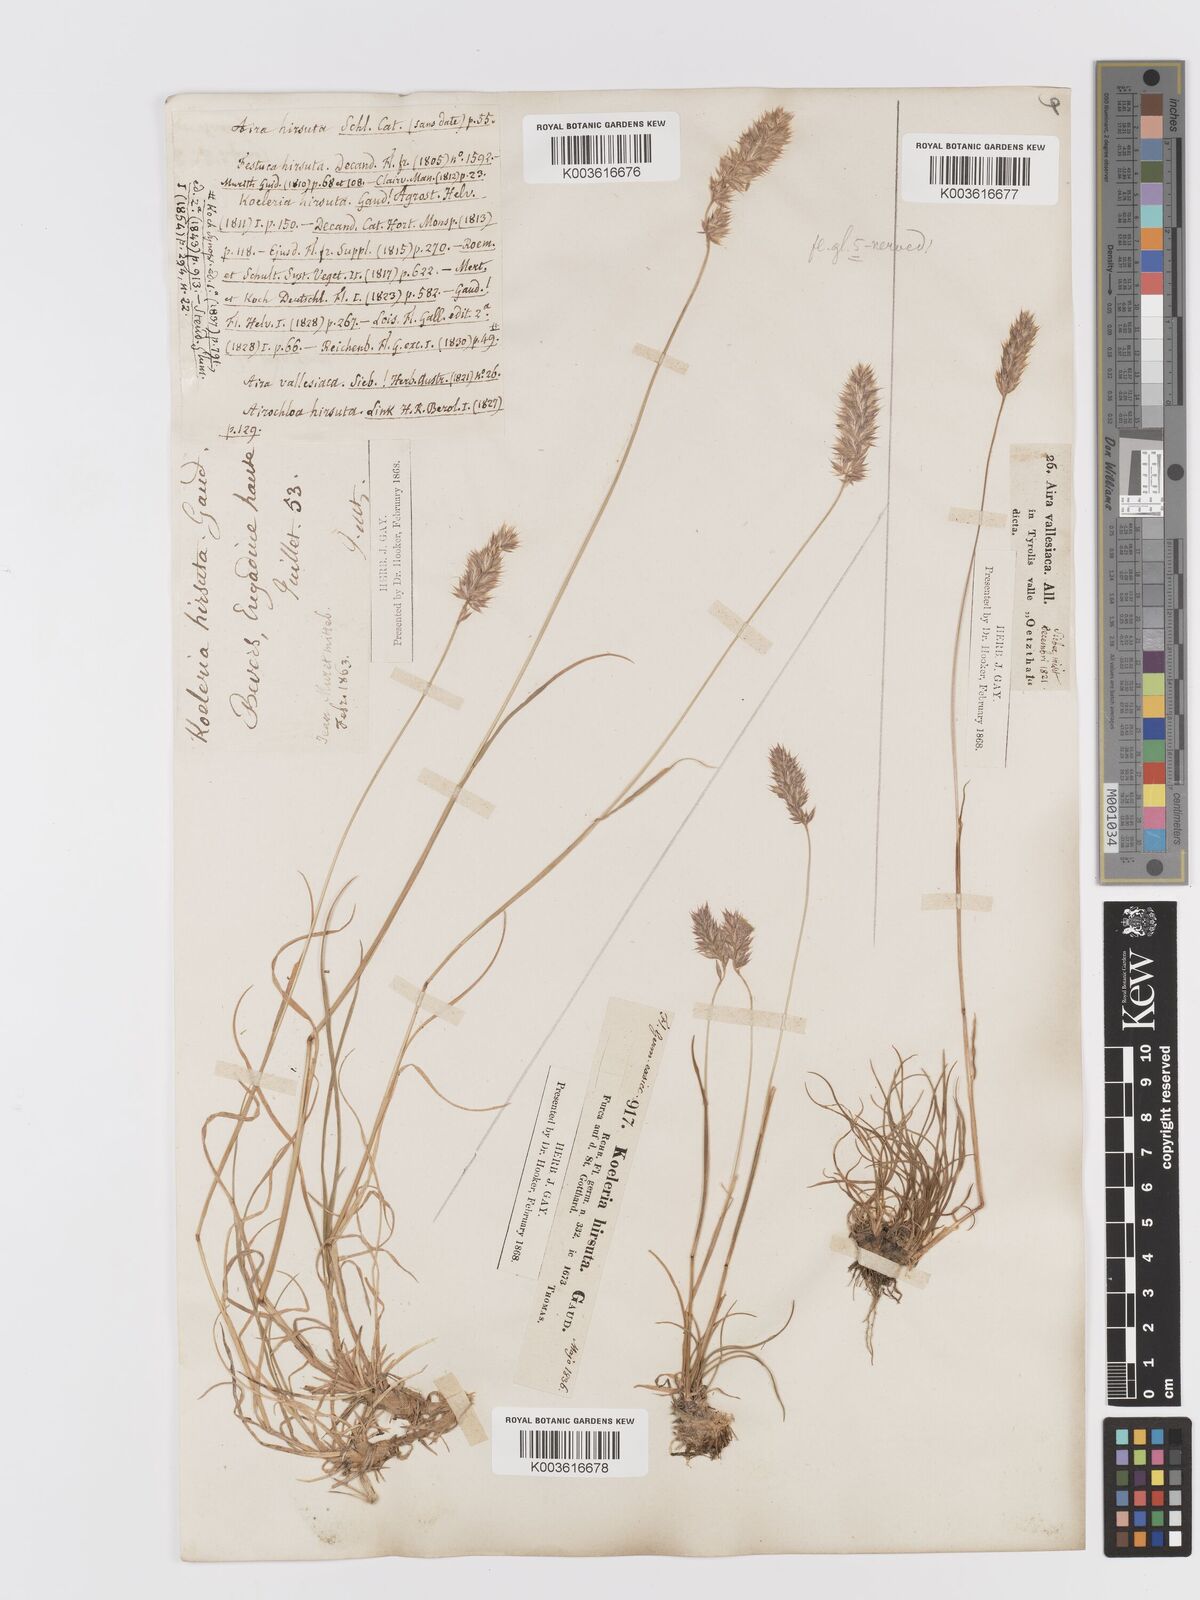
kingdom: Plantae
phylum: Tracheophyta
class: Liliopsida
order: Poales
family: Poaceae
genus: Koeleria
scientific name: Koeleria hirsuta
